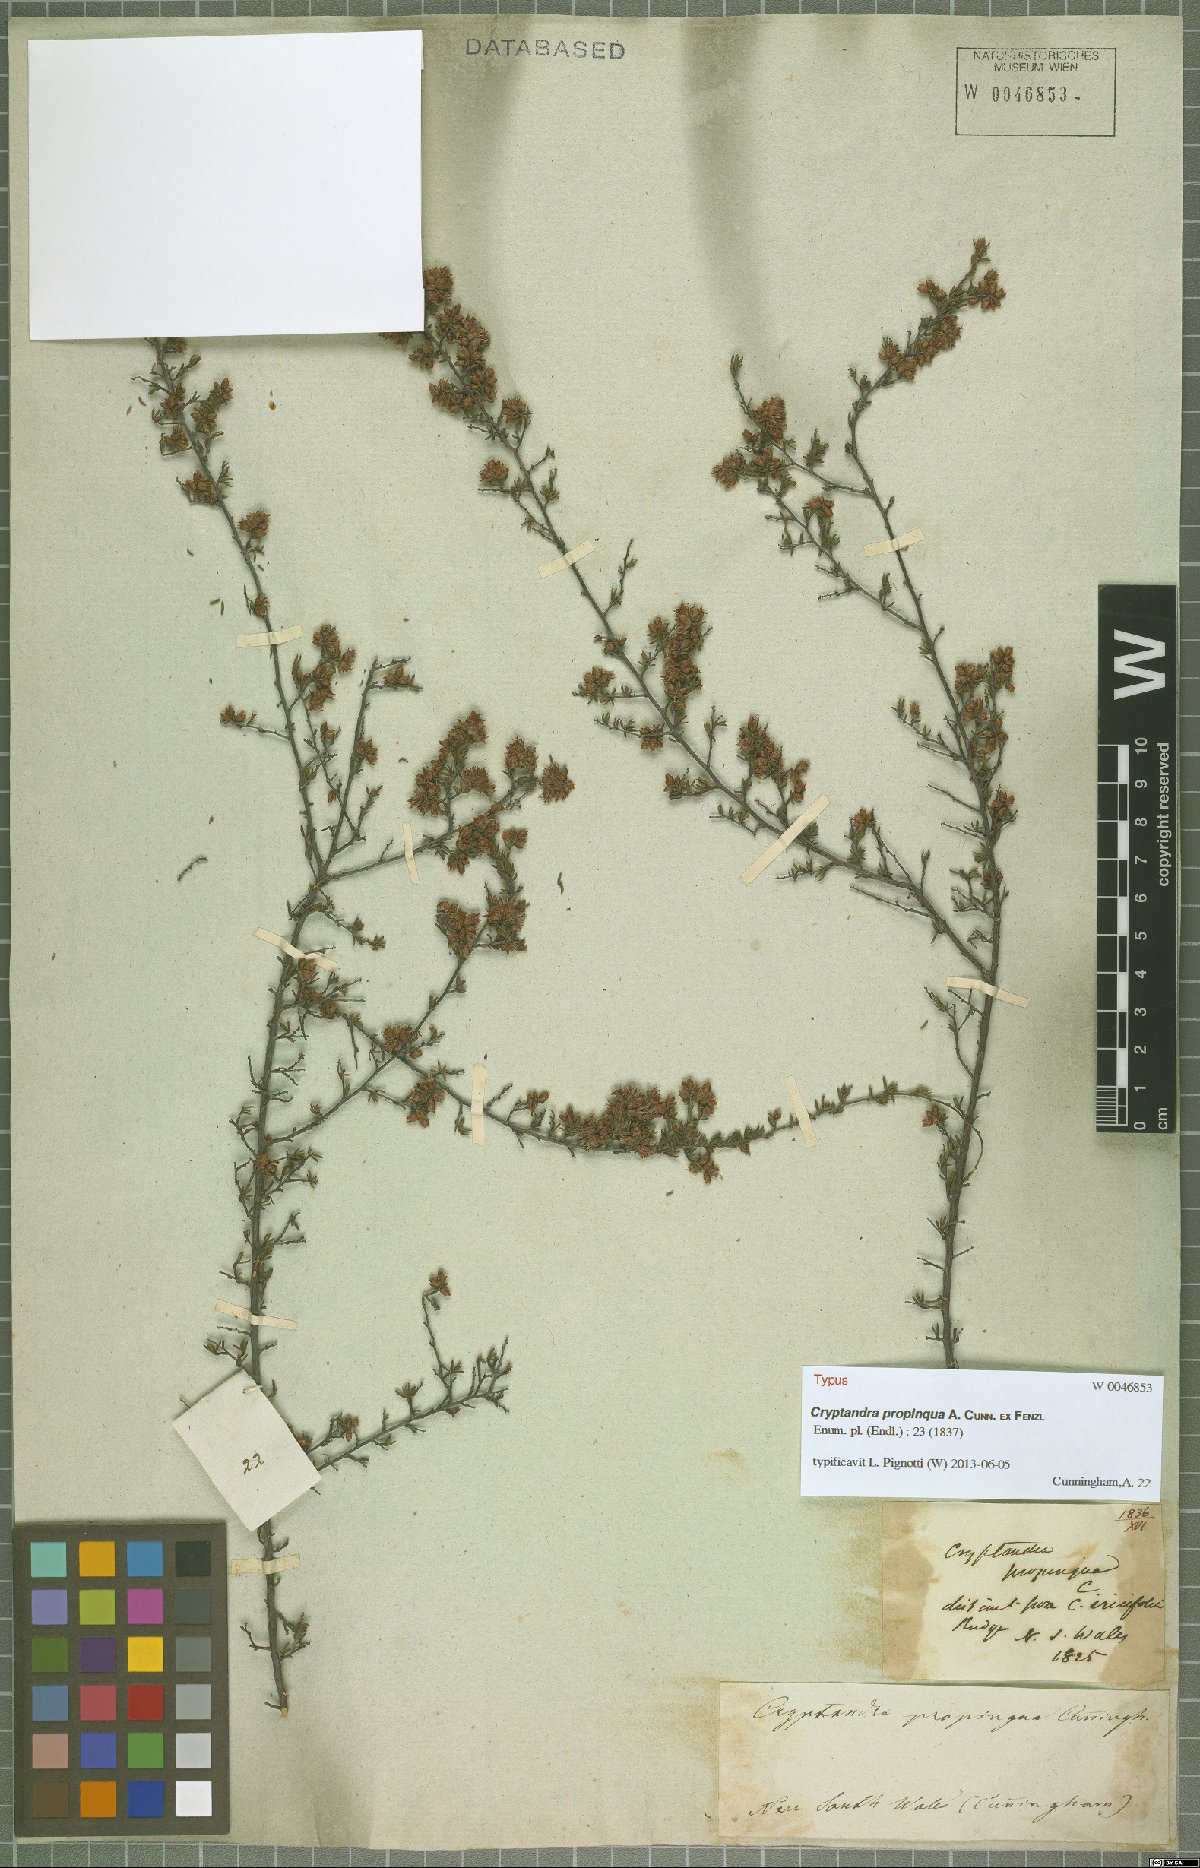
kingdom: Plantae
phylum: Tracheophyta
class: Magnoliopsida
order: Rosales
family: Rhamnaceae
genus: Cryptandra
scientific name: Cryptandra propinqua
